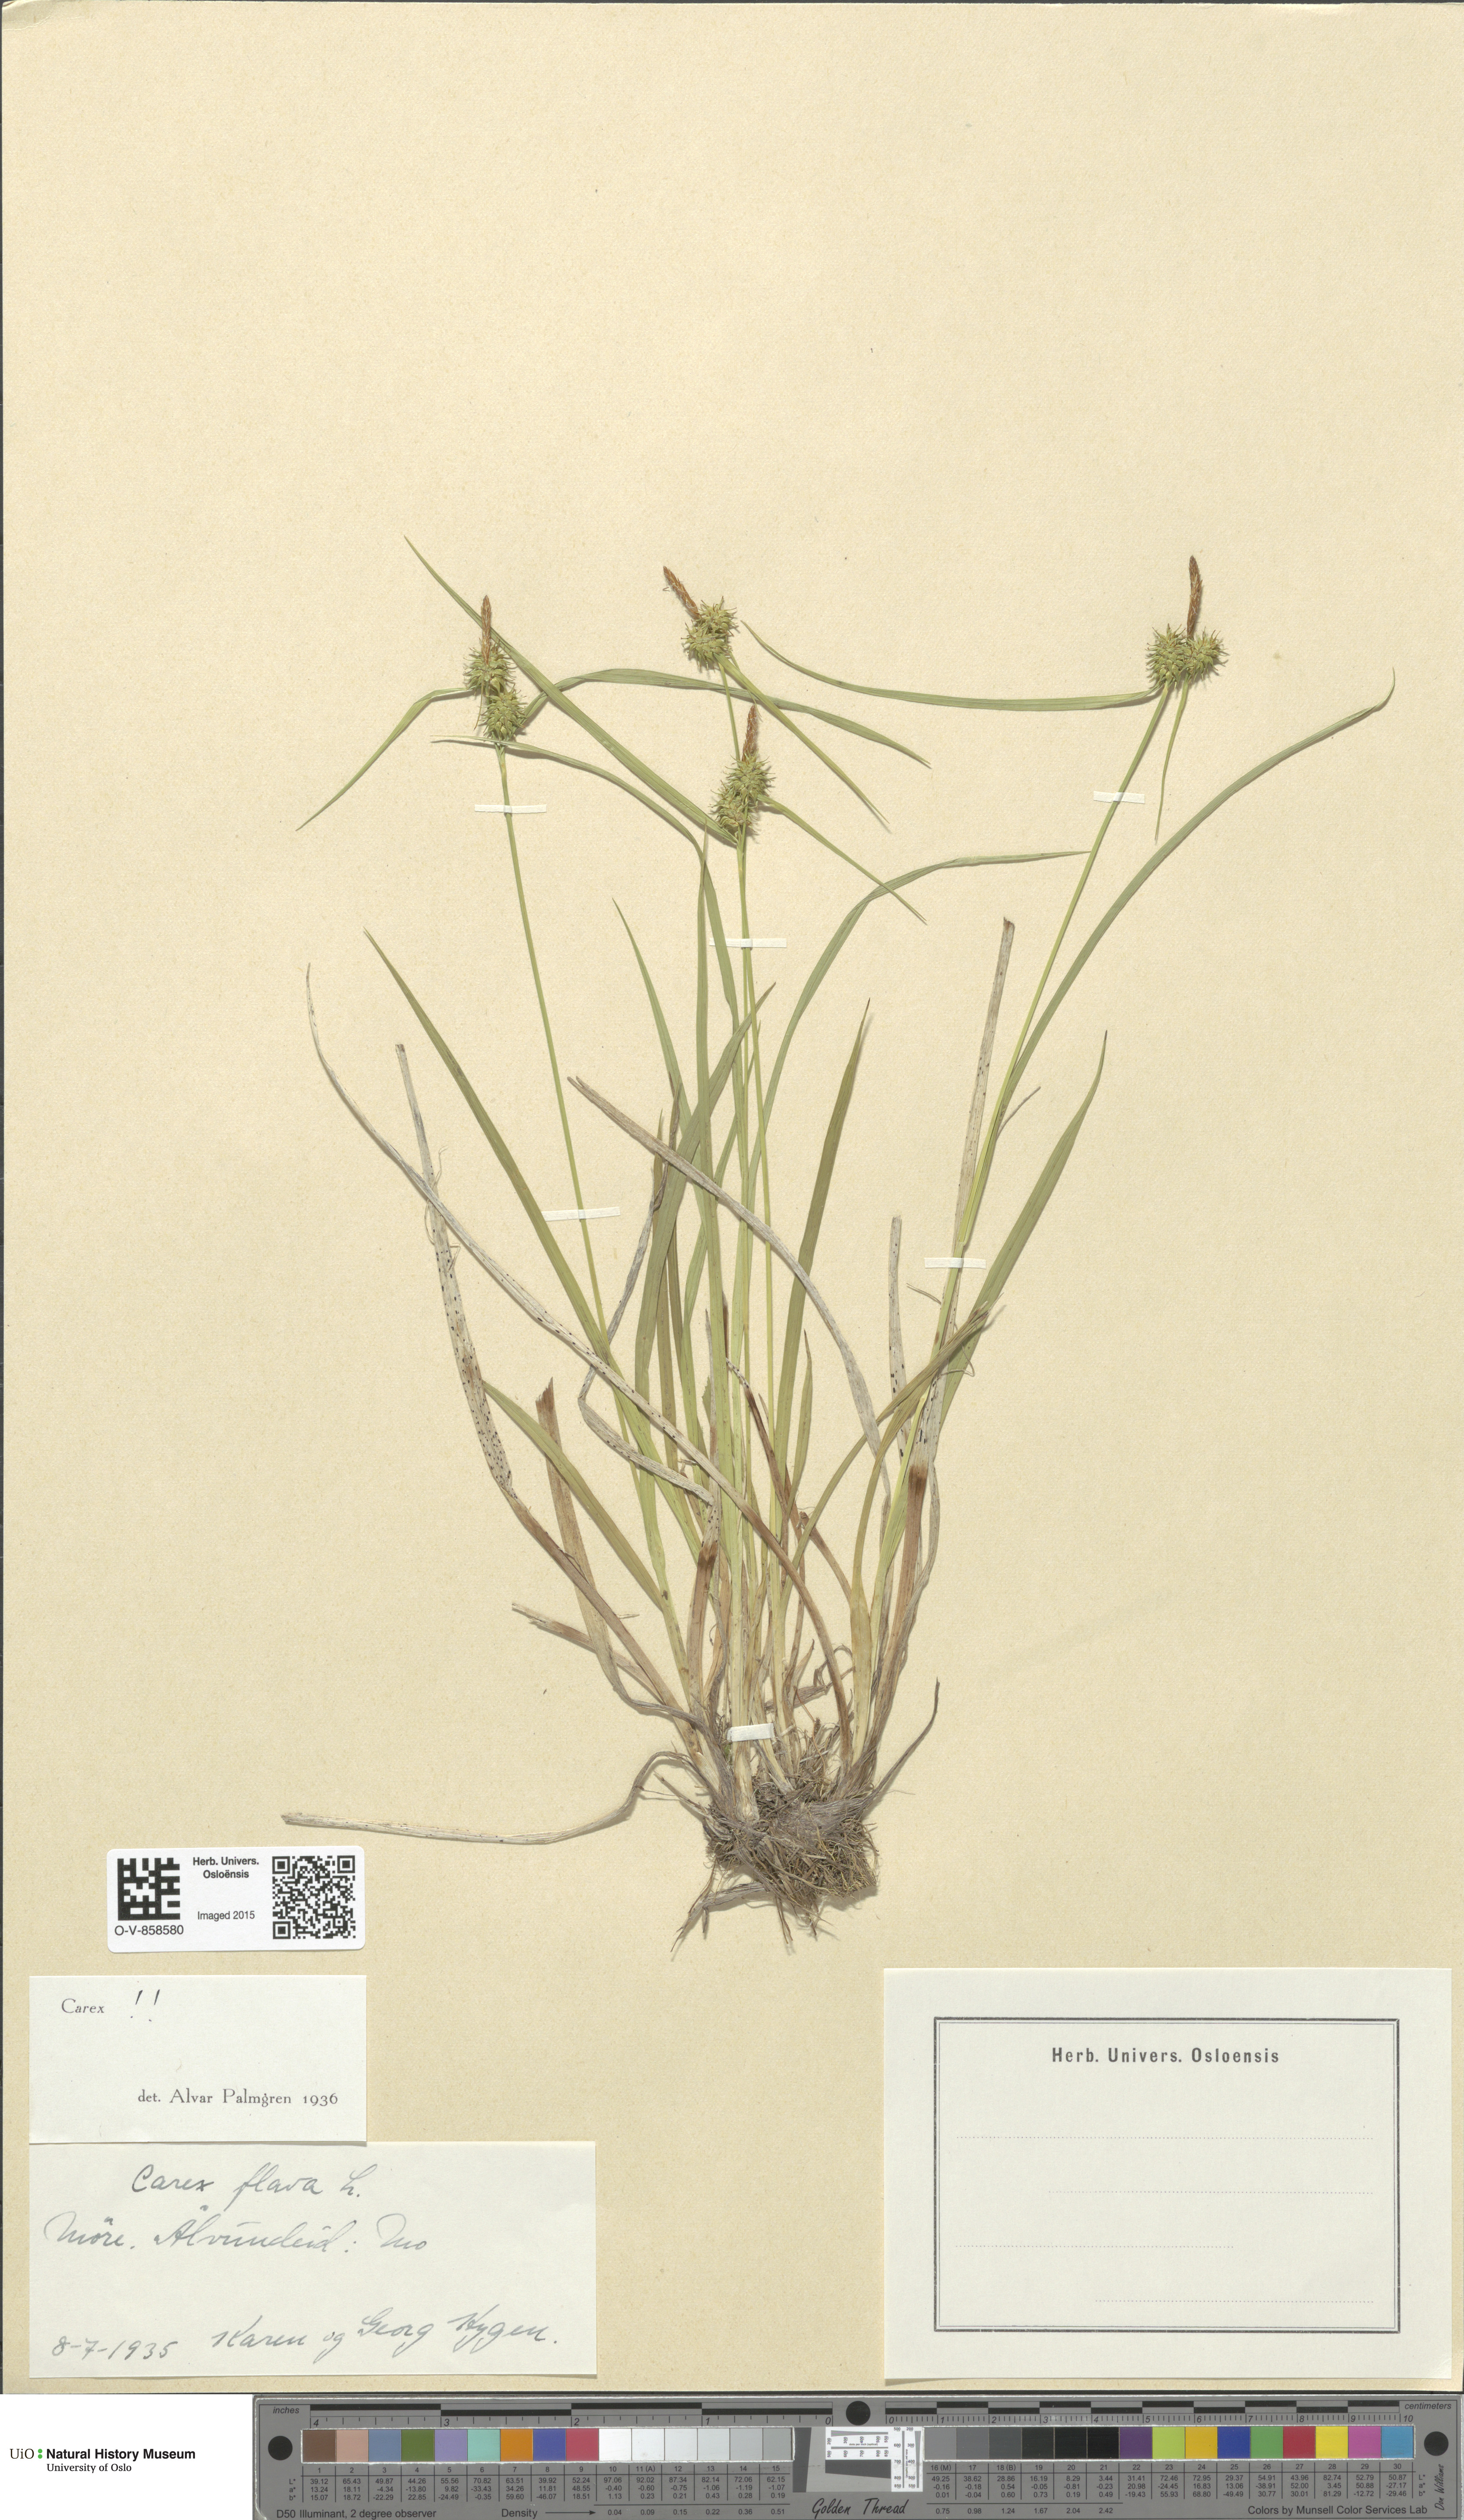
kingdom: Plantae
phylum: Tracheophyta
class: Liliopsida
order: Poales
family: Cyperaceae
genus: Carex
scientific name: Carex flava
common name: Large yellow-sedge
